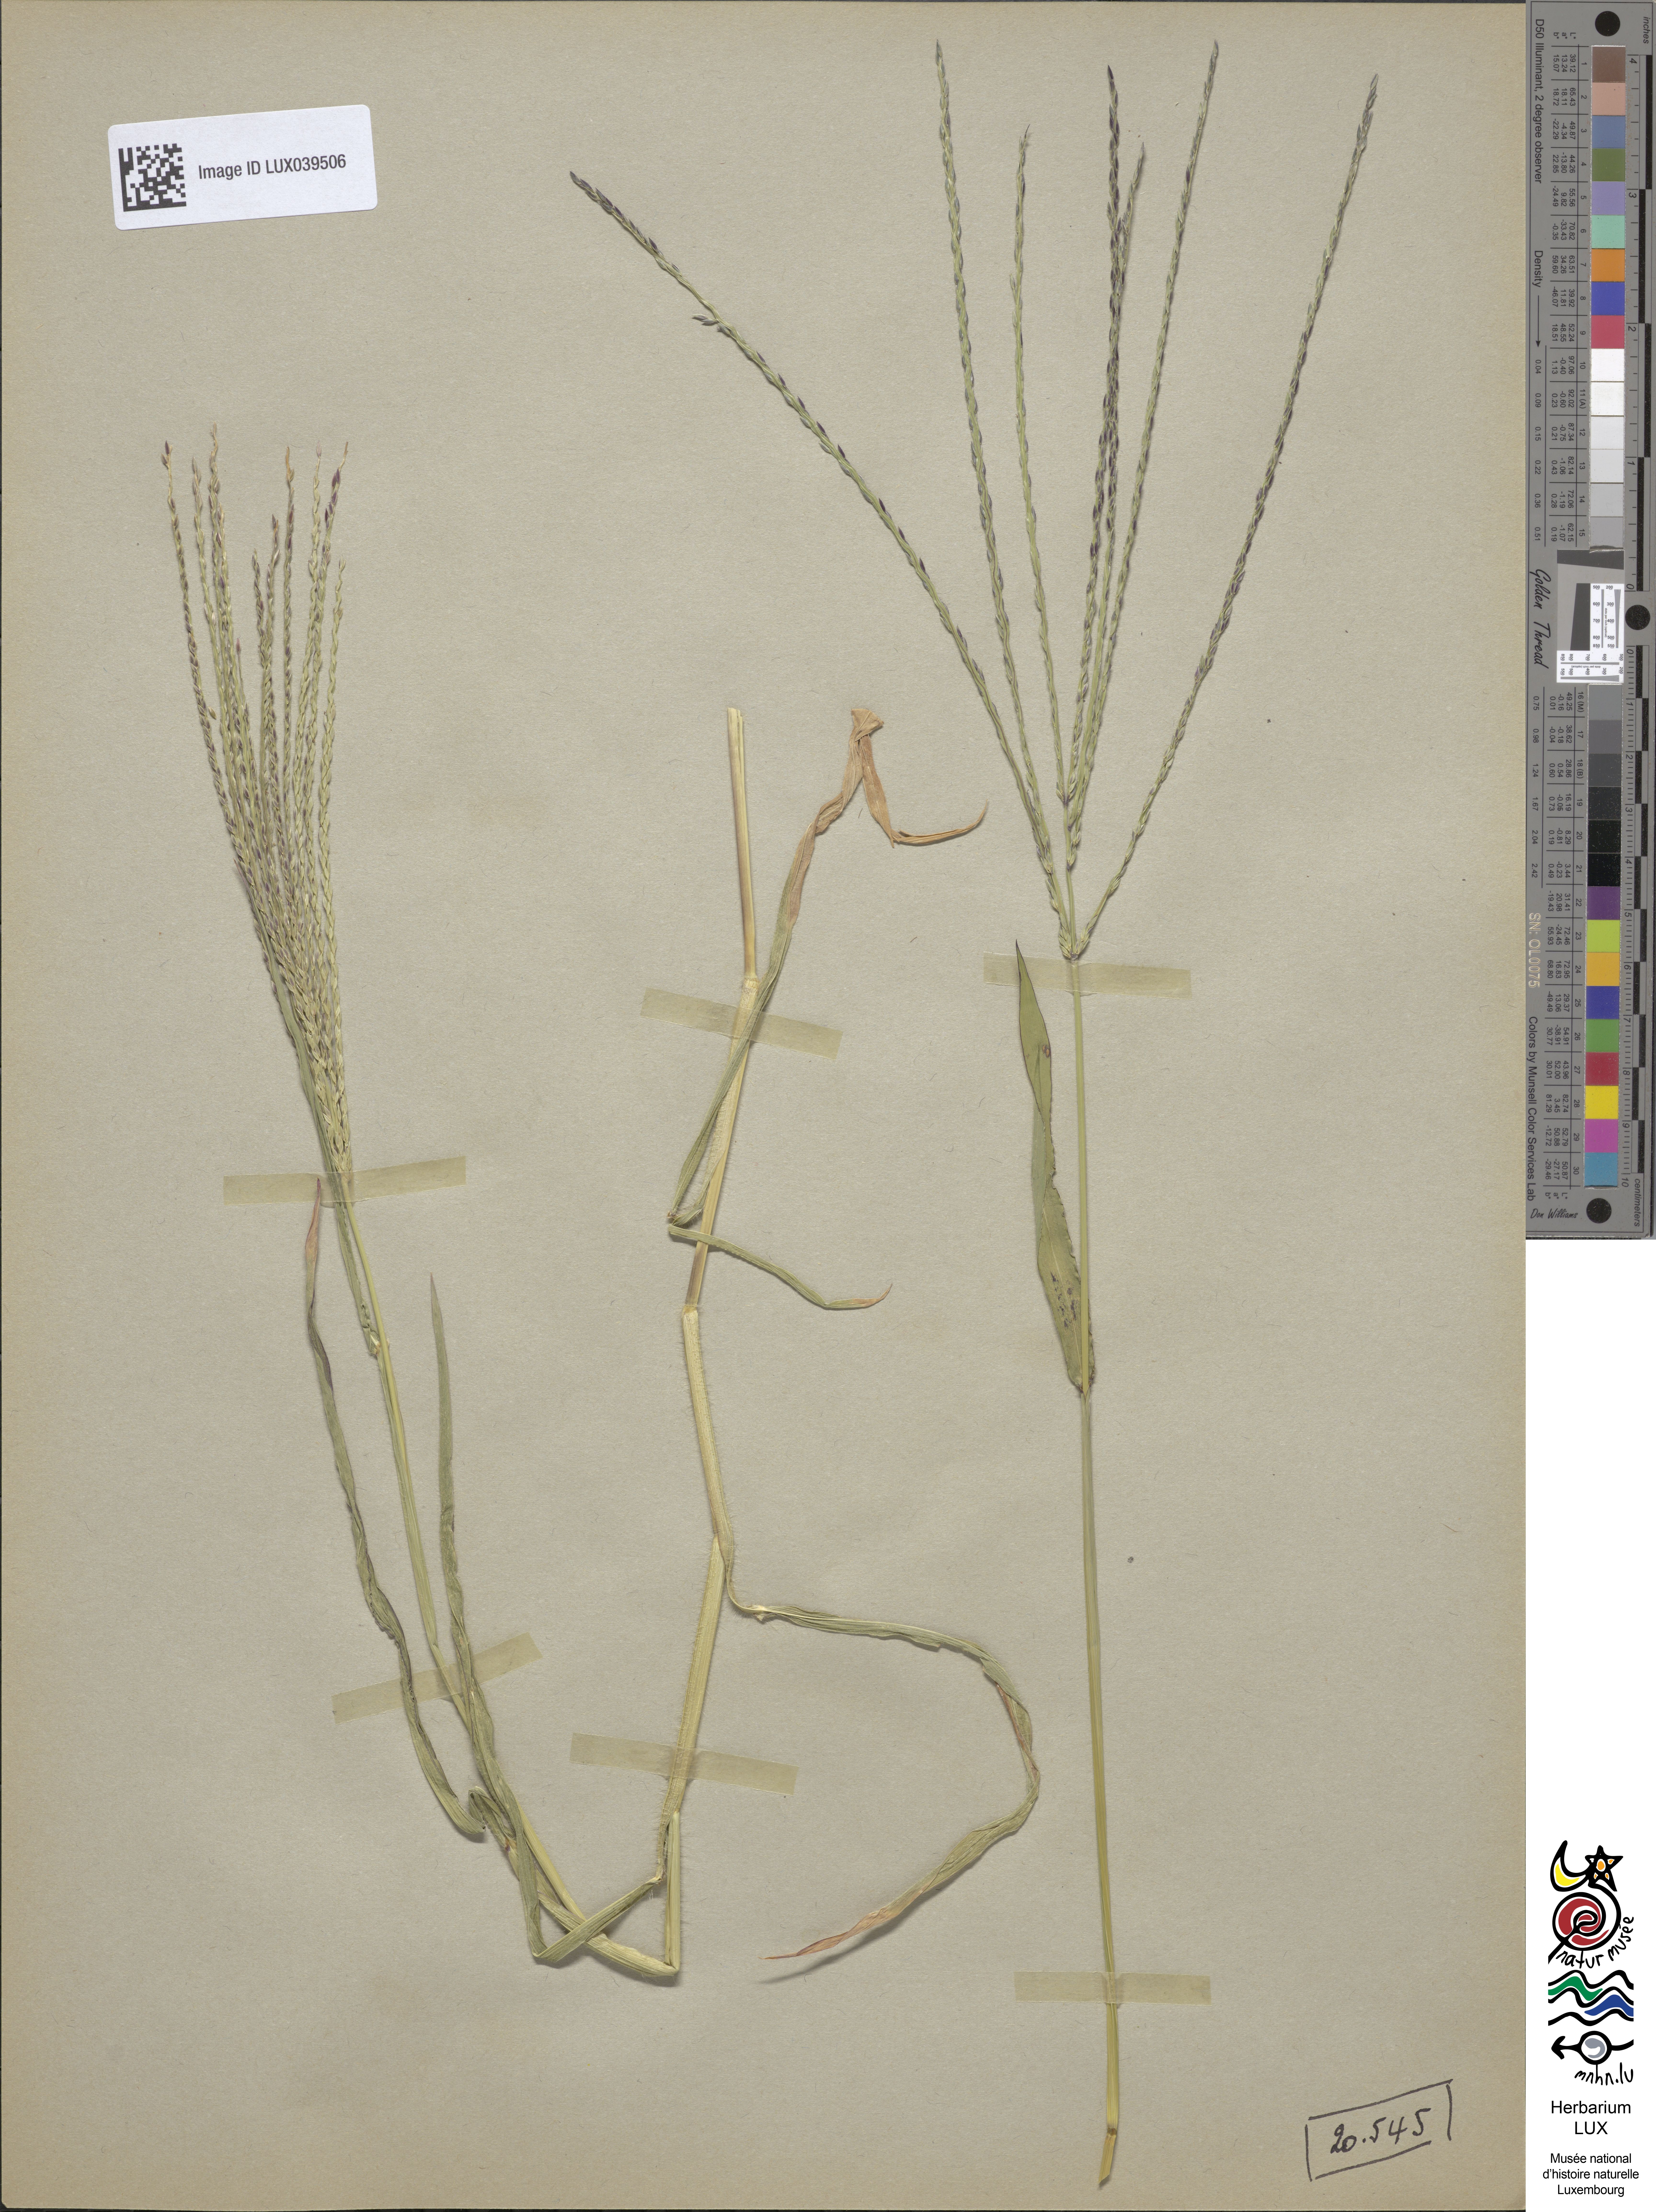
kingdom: Plantae
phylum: Tracheophyta
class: Liliopsida
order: Poales
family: Poaceae
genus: Digitaria
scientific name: Digitaria sanguinalis
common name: Hairy crabgrass
